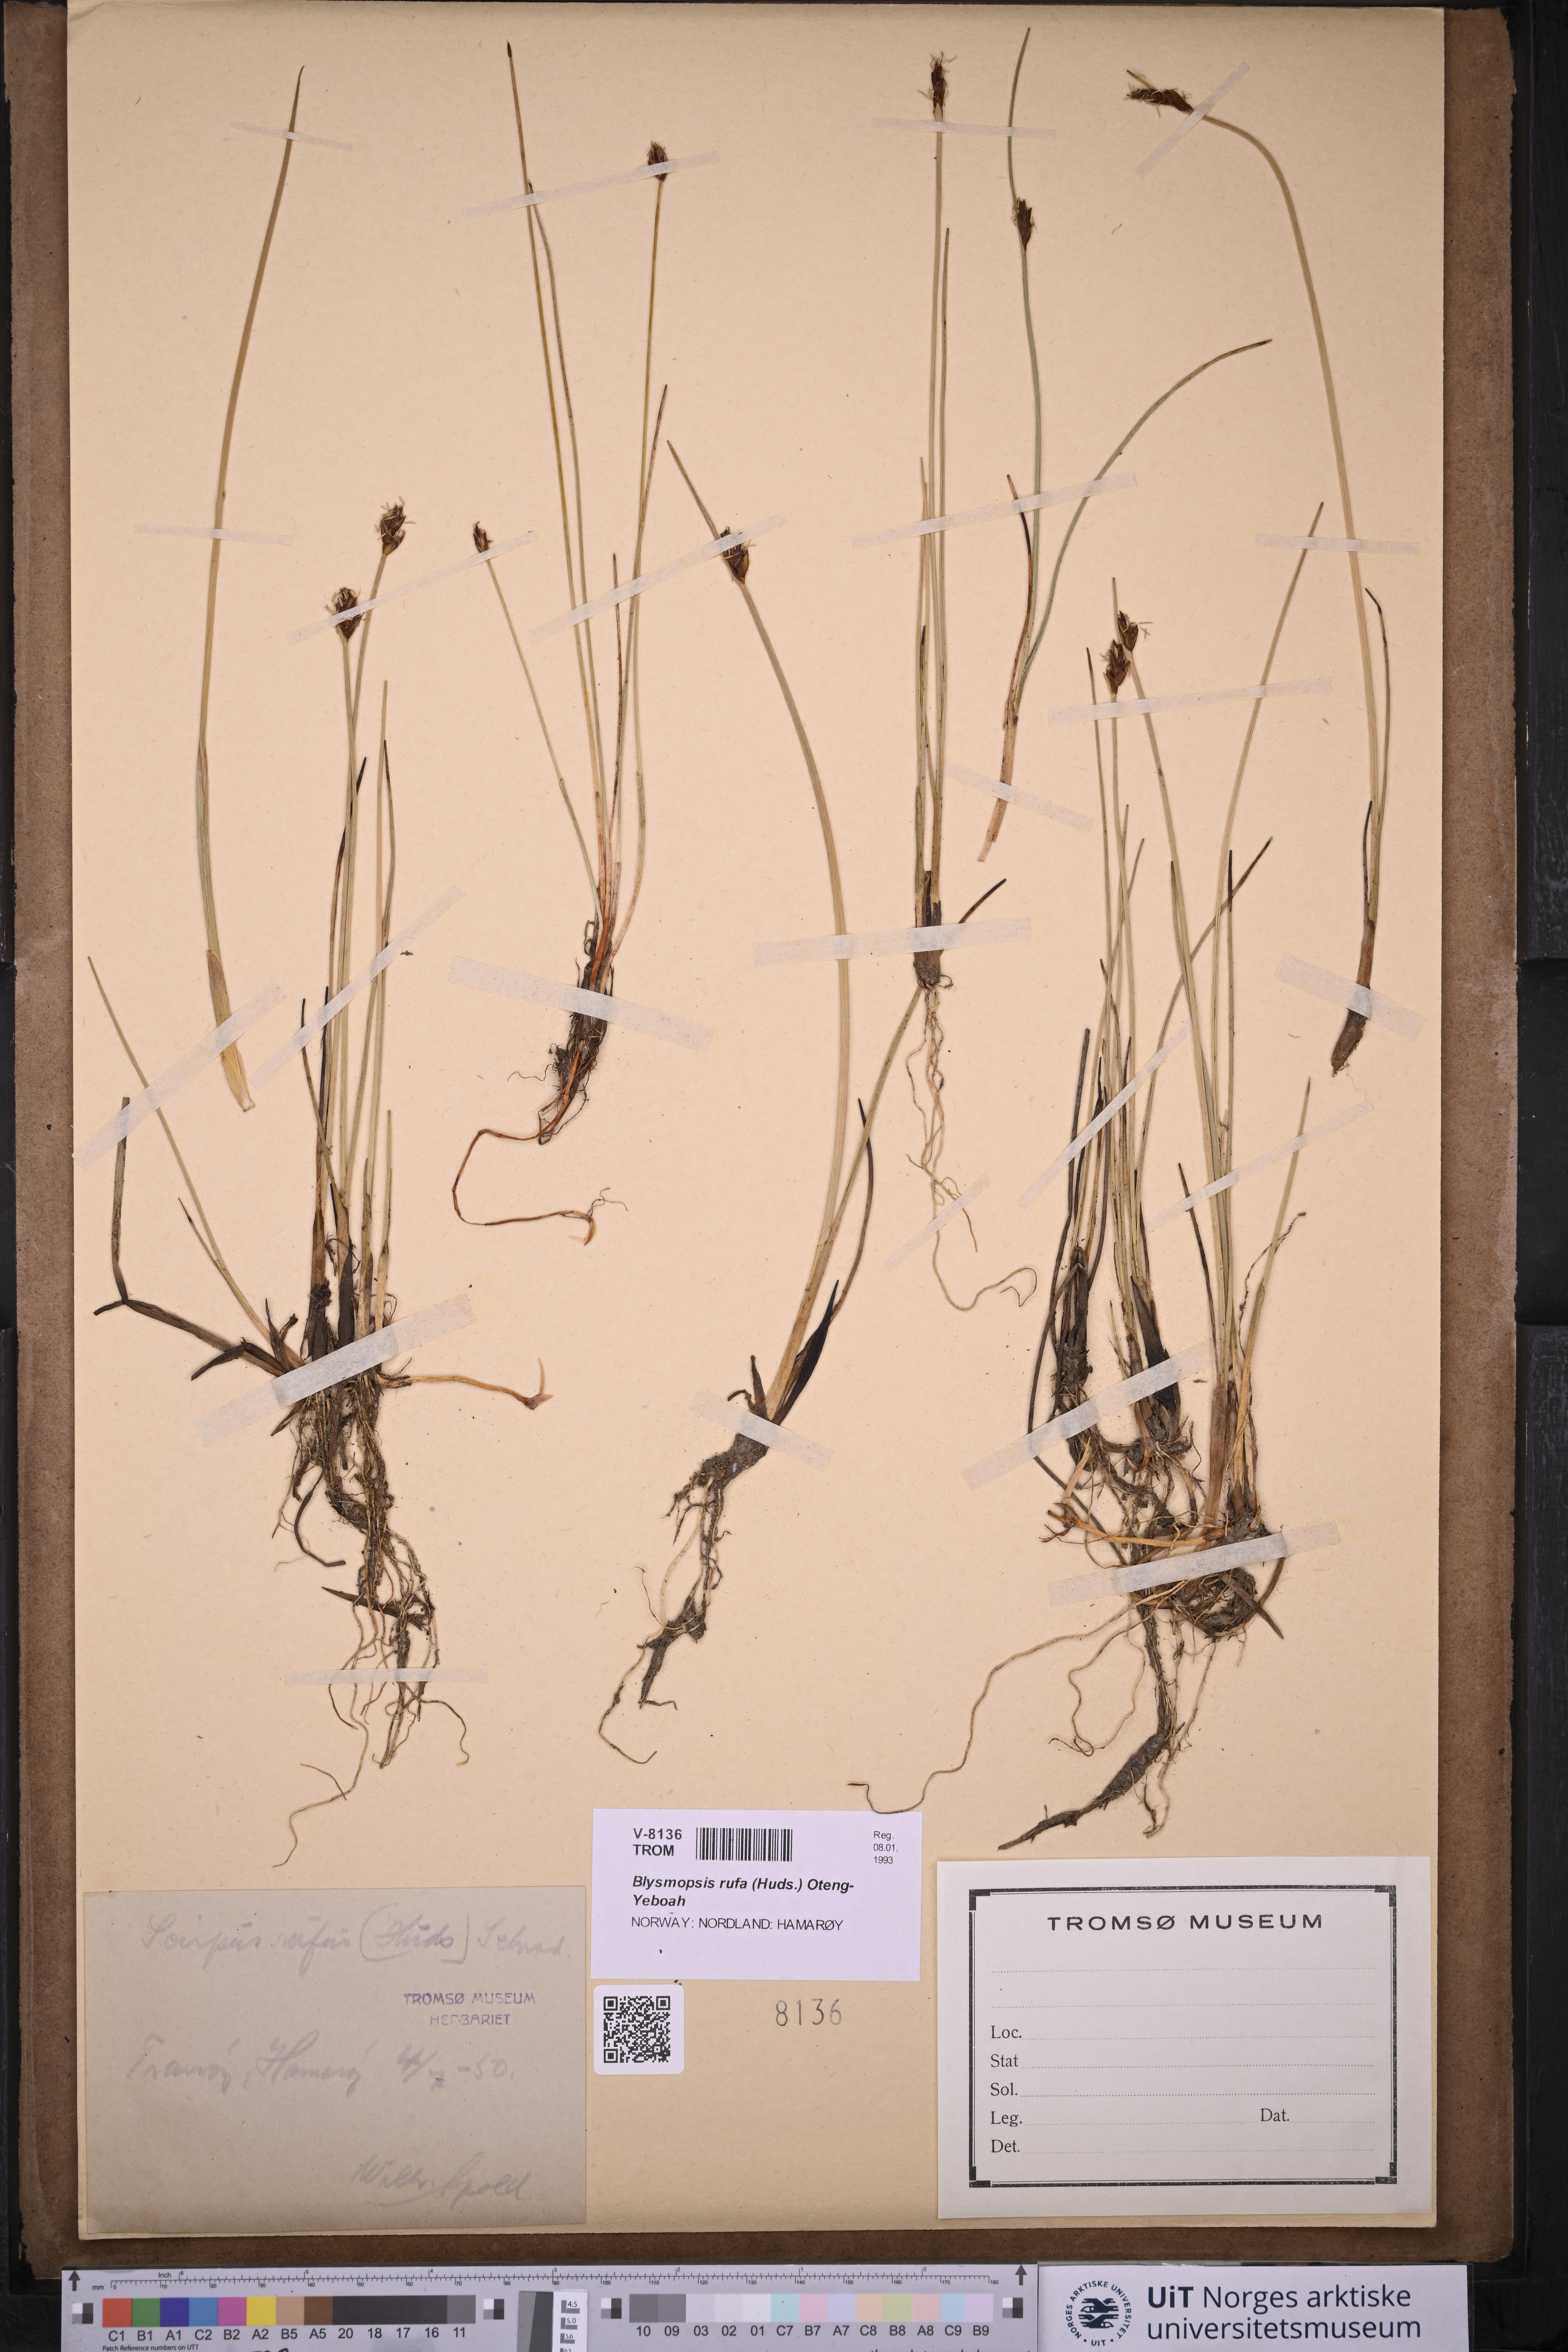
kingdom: Plantae
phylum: Tracheophyta
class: Liliopsida
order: Poales
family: Cyperaceae
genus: Blysmus
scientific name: Blysmus rufus
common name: Saltmarsh flat-sedge
